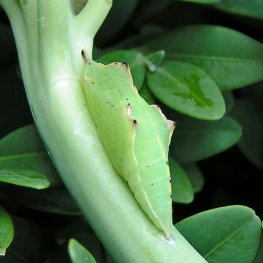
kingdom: Animalia
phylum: Arthropoda
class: Insecta
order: Lepidoptera
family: Pieridae
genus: Pieris
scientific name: Pieris rapae
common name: Cabbage White
